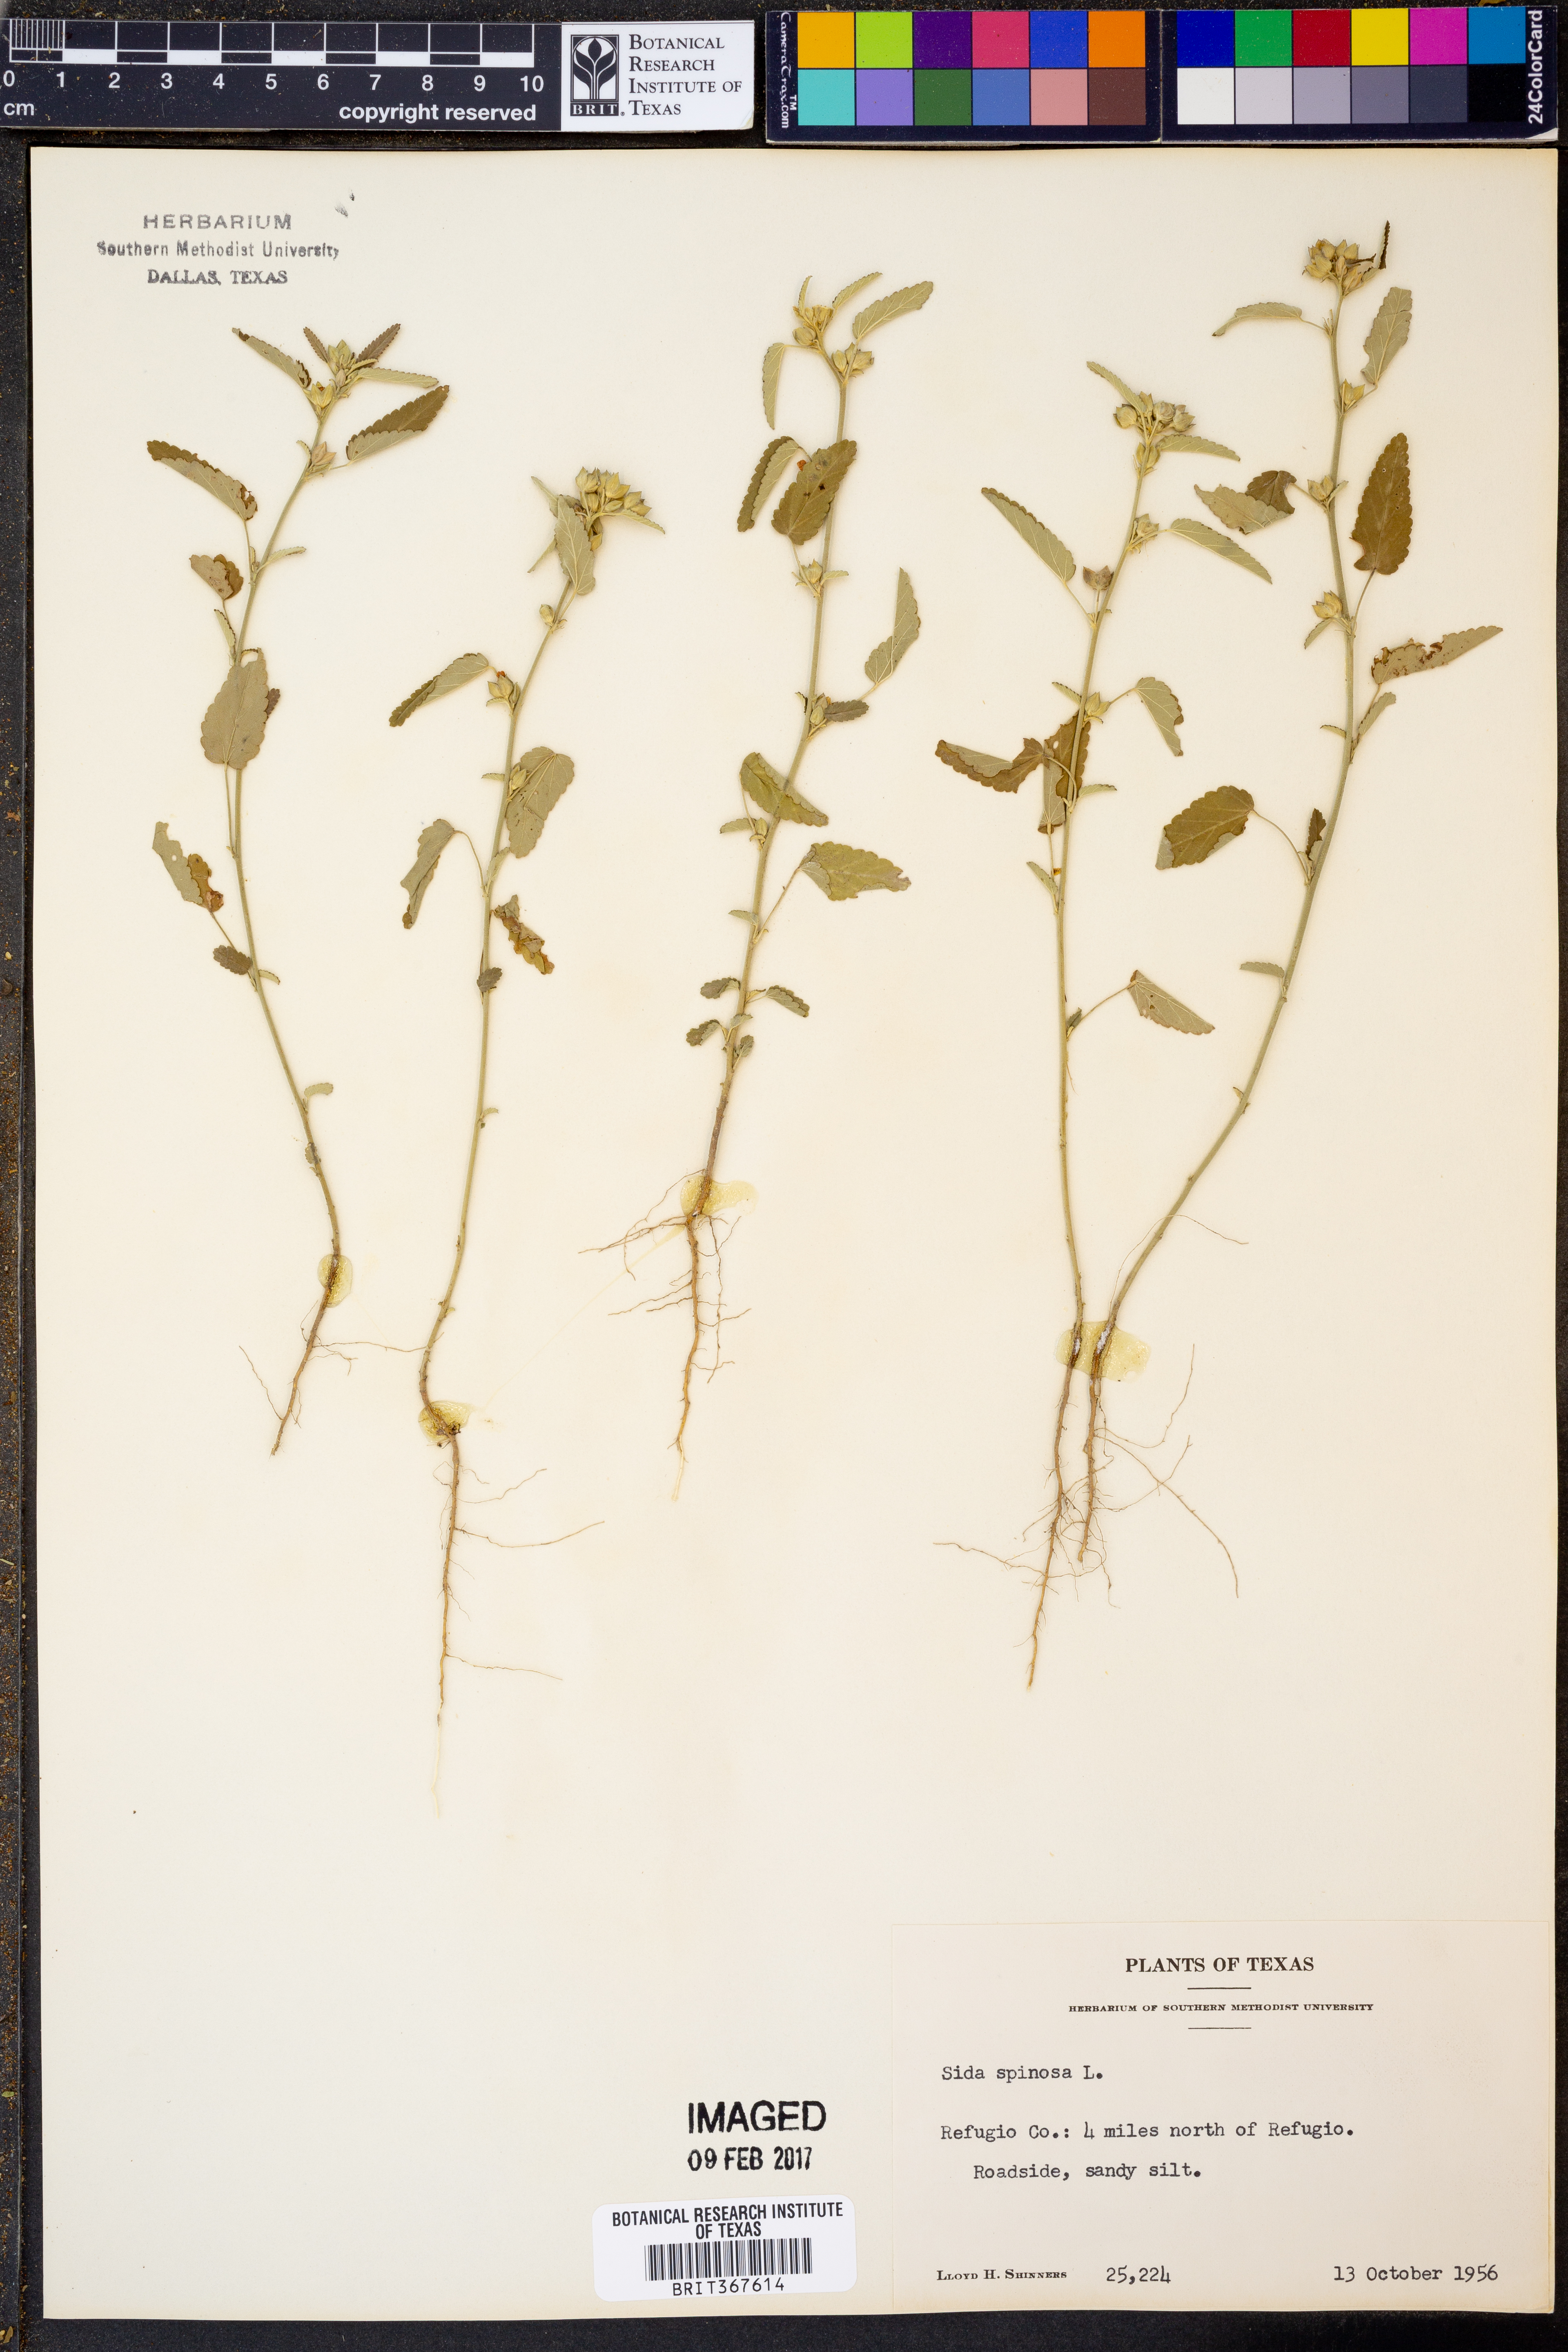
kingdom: Plantae
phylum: Tracheophyta
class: Magnoliopsida
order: Malvales
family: Malvaceae
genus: Sida
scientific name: Sida spinosa
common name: Prickly fanpetals
